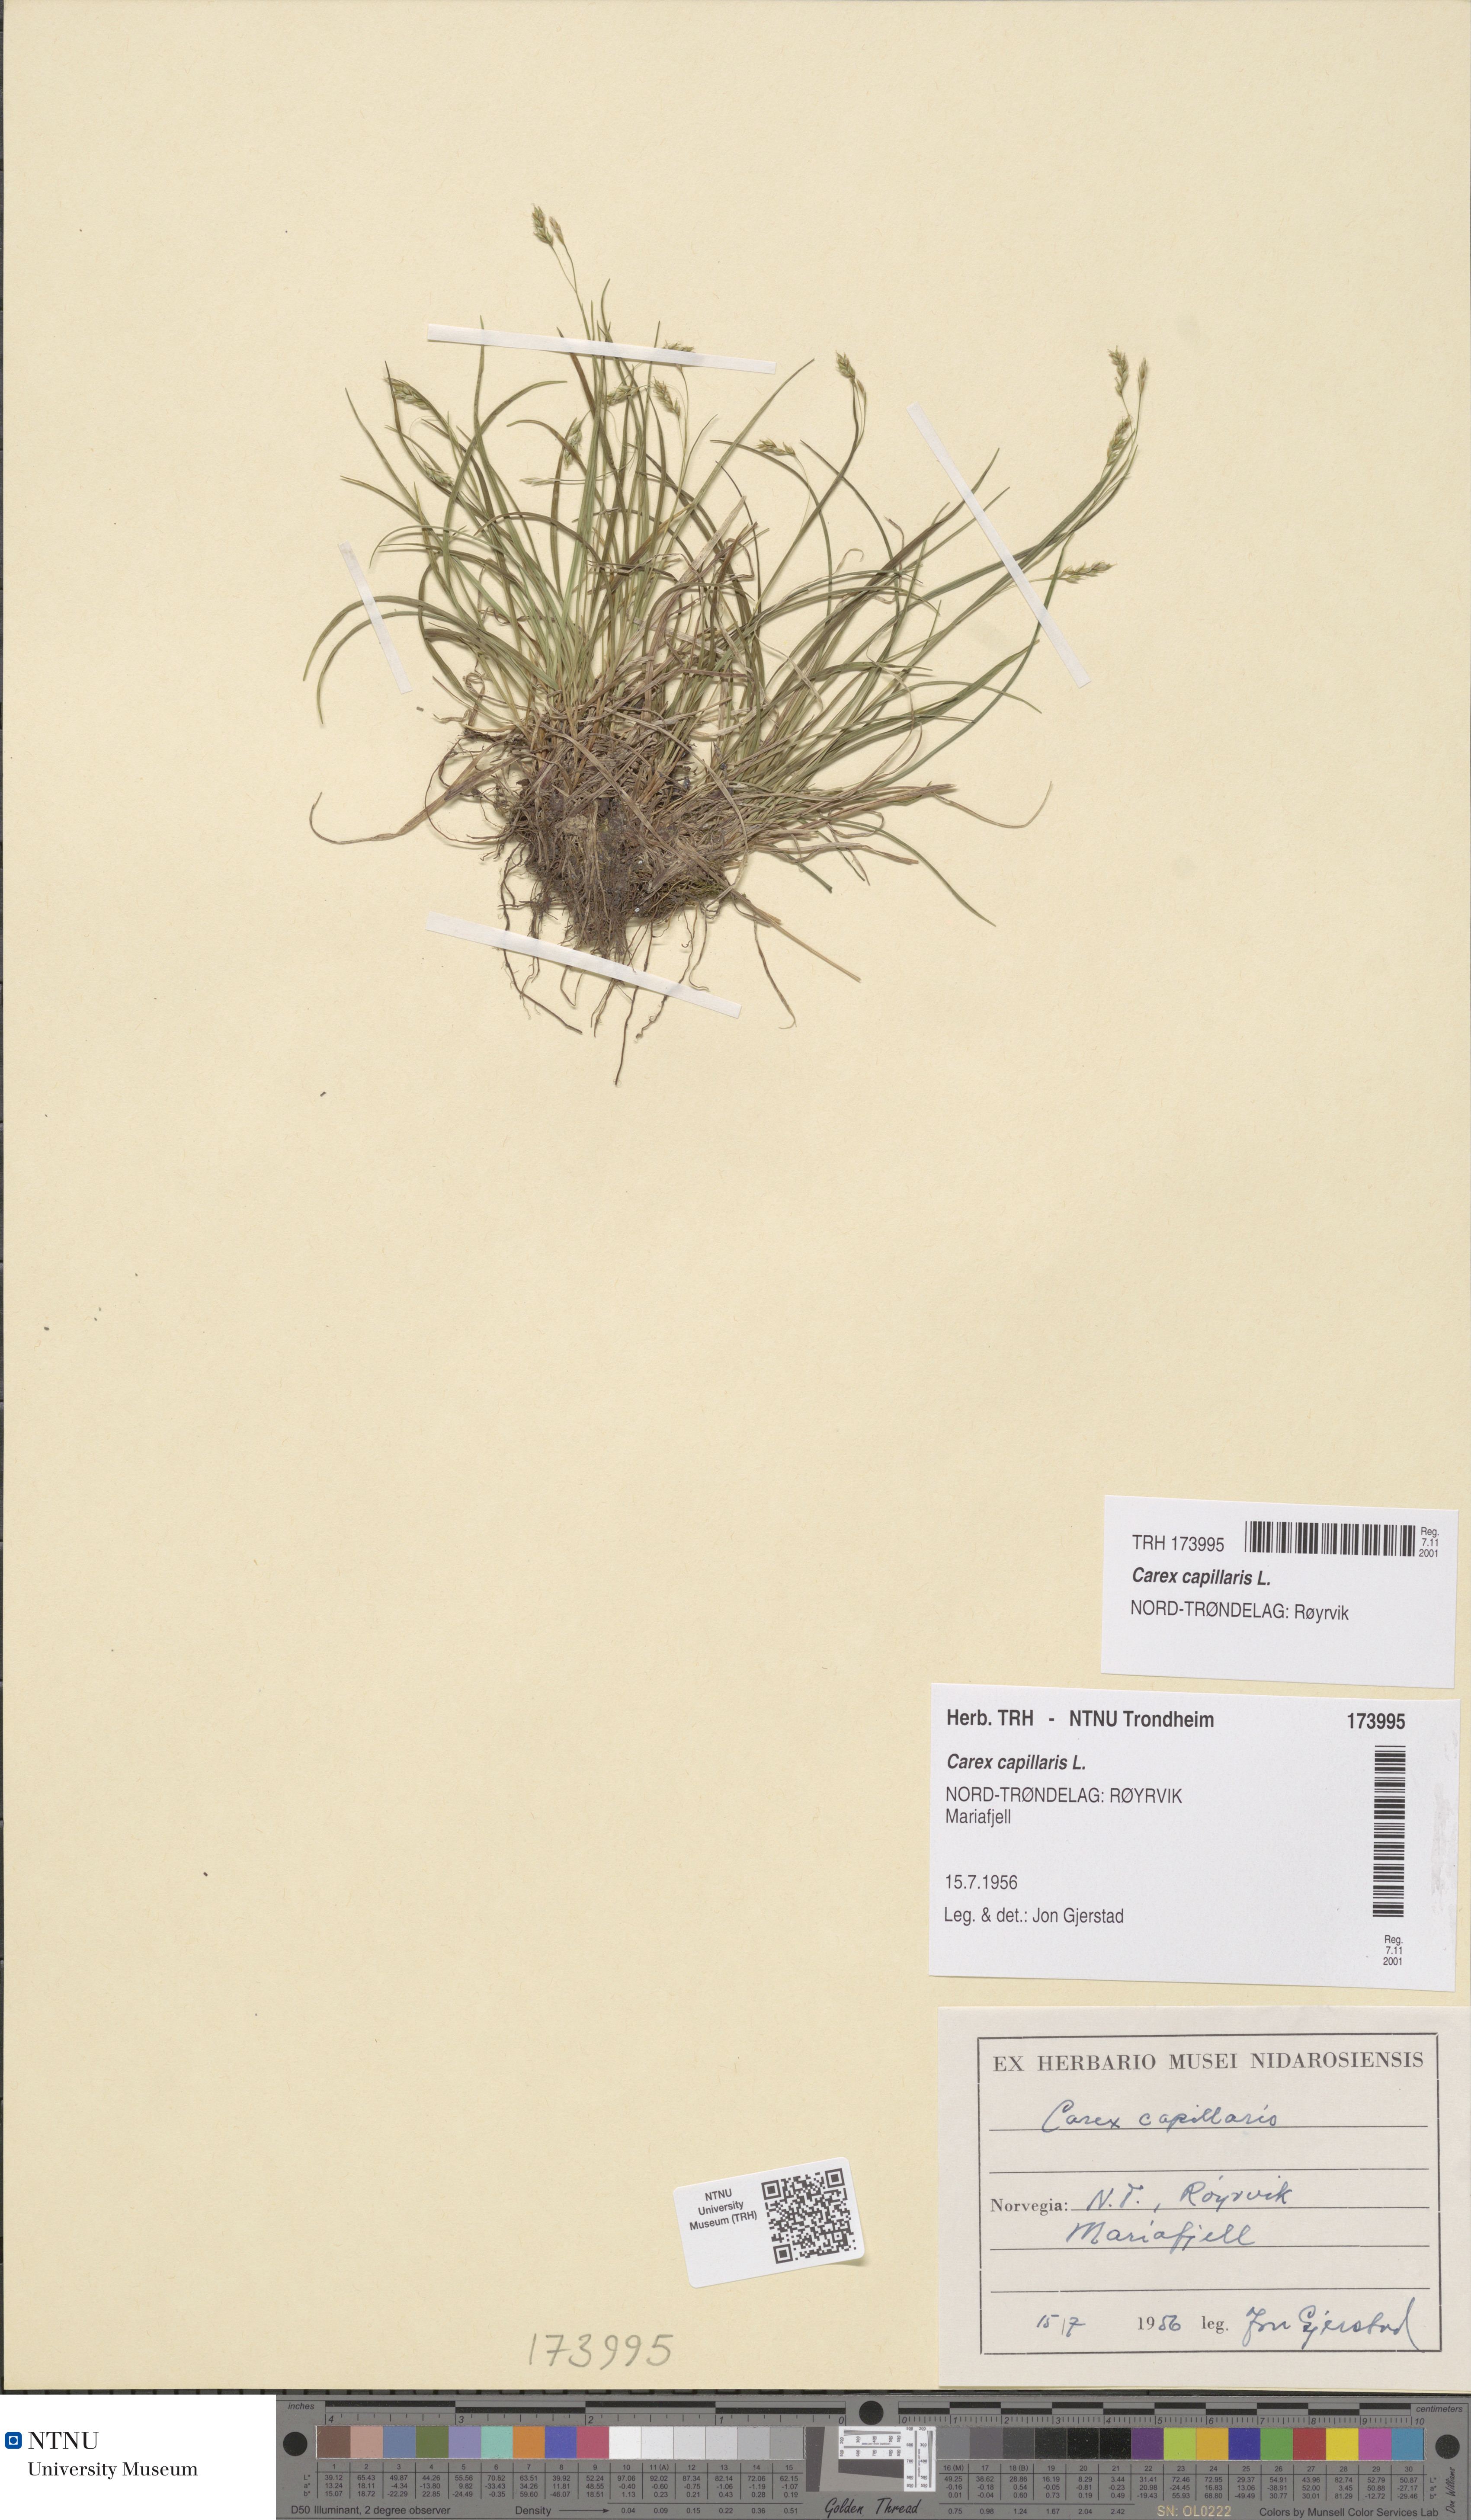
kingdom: Plantae
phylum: Tracheophyta
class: Liliopsida
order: Poales
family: Cyperaceae
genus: Carex
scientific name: Carex capillaris
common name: Hair sedge
